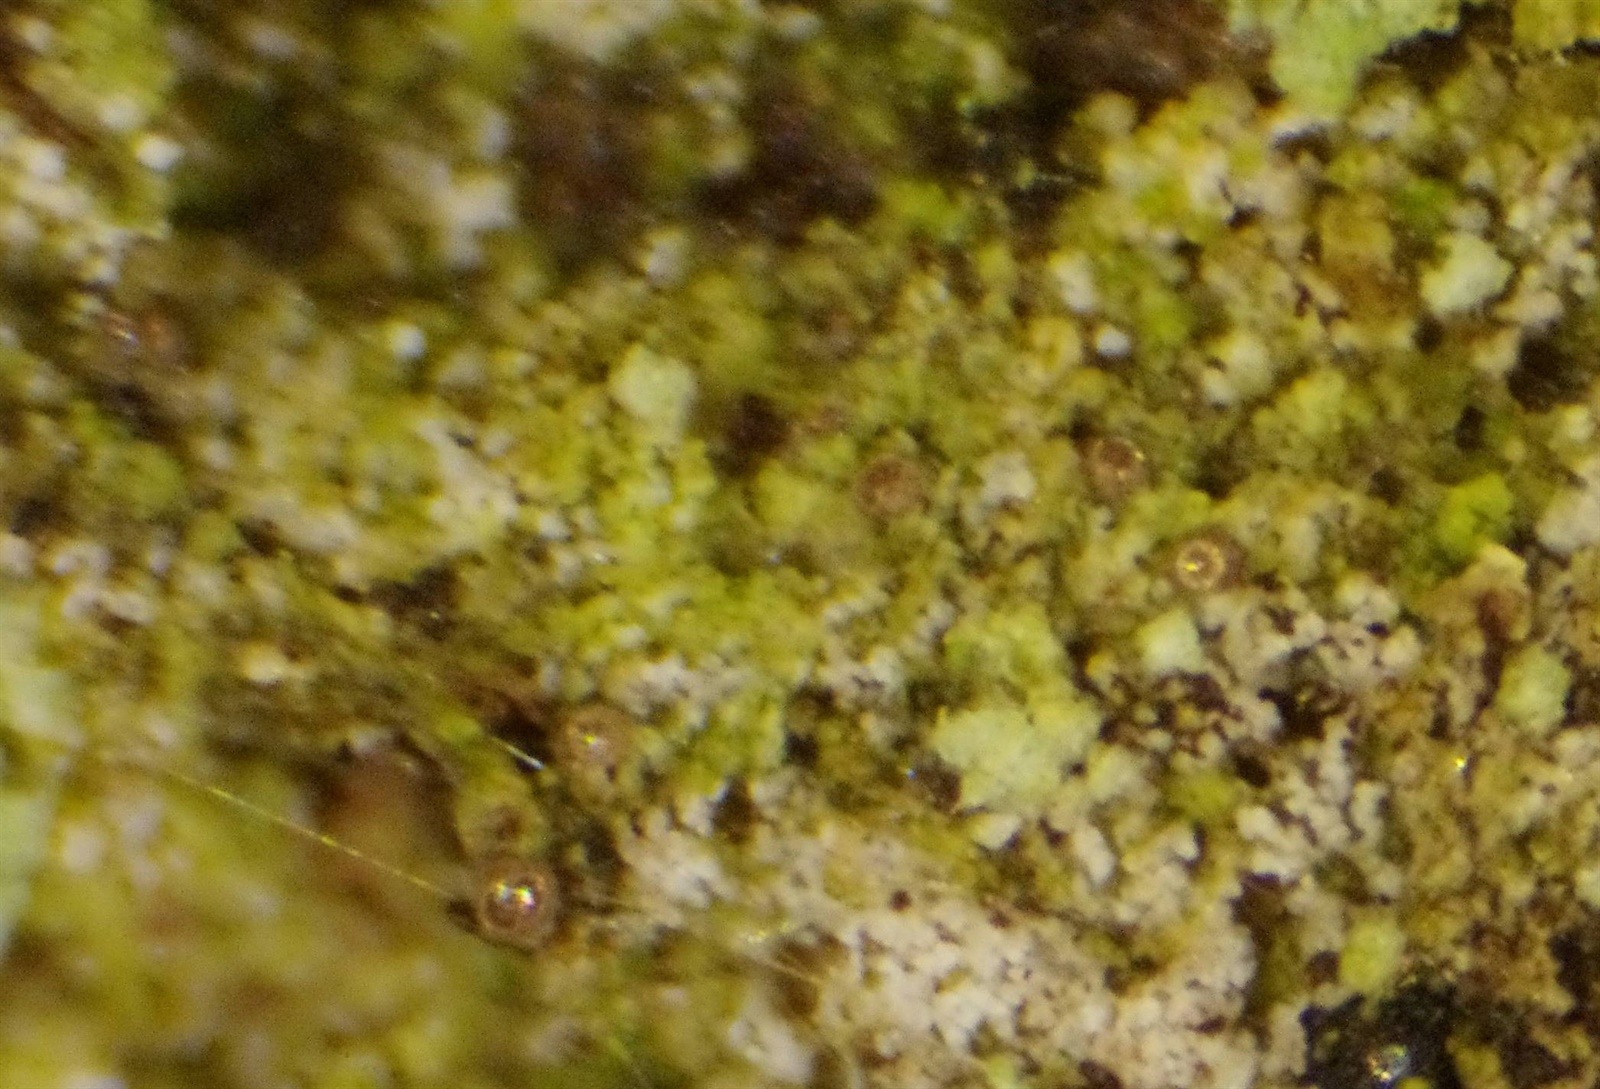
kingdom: Protozoa
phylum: Mycetozoa
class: Myxomycetes
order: Cribrariales
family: Liceaceae
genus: Licea
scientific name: Licea kleistobolus
